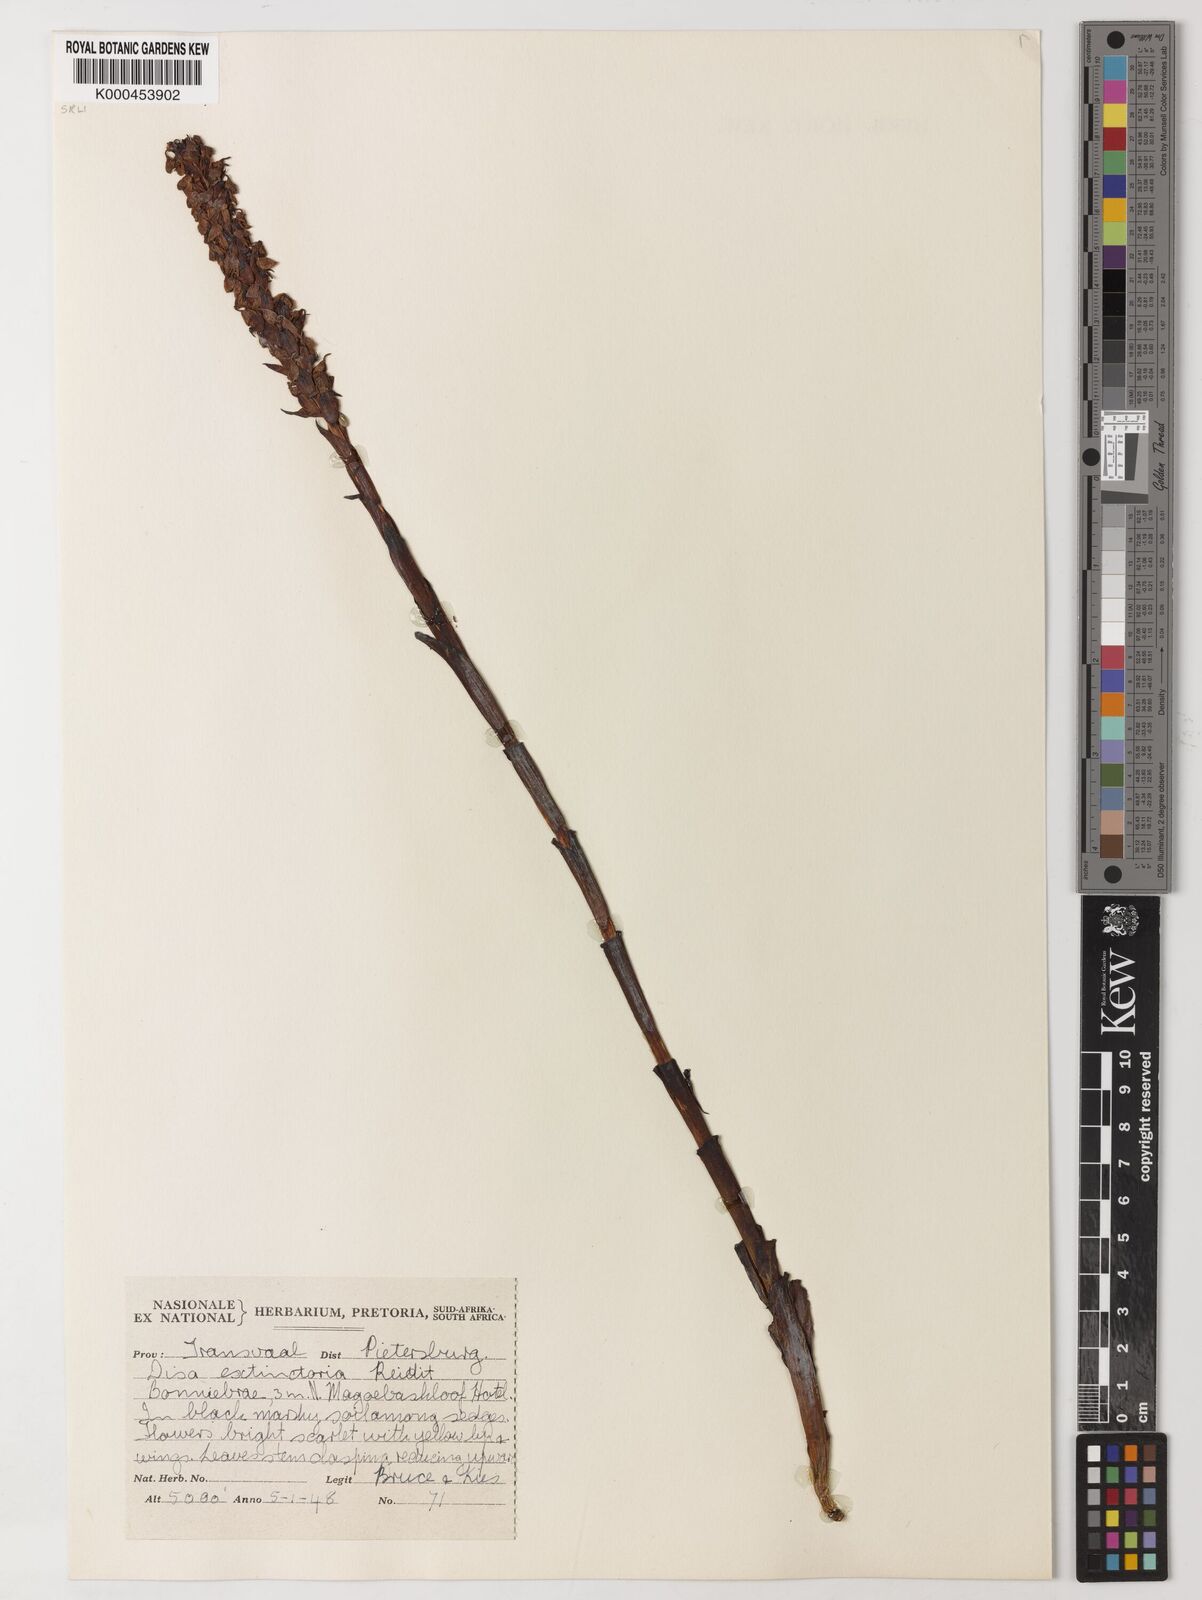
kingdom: Plantae
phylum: Tracheophyta
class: Liliopsida
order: Asparagales
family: Orchidaceae
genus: Disa
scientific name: Disa extinctoria
